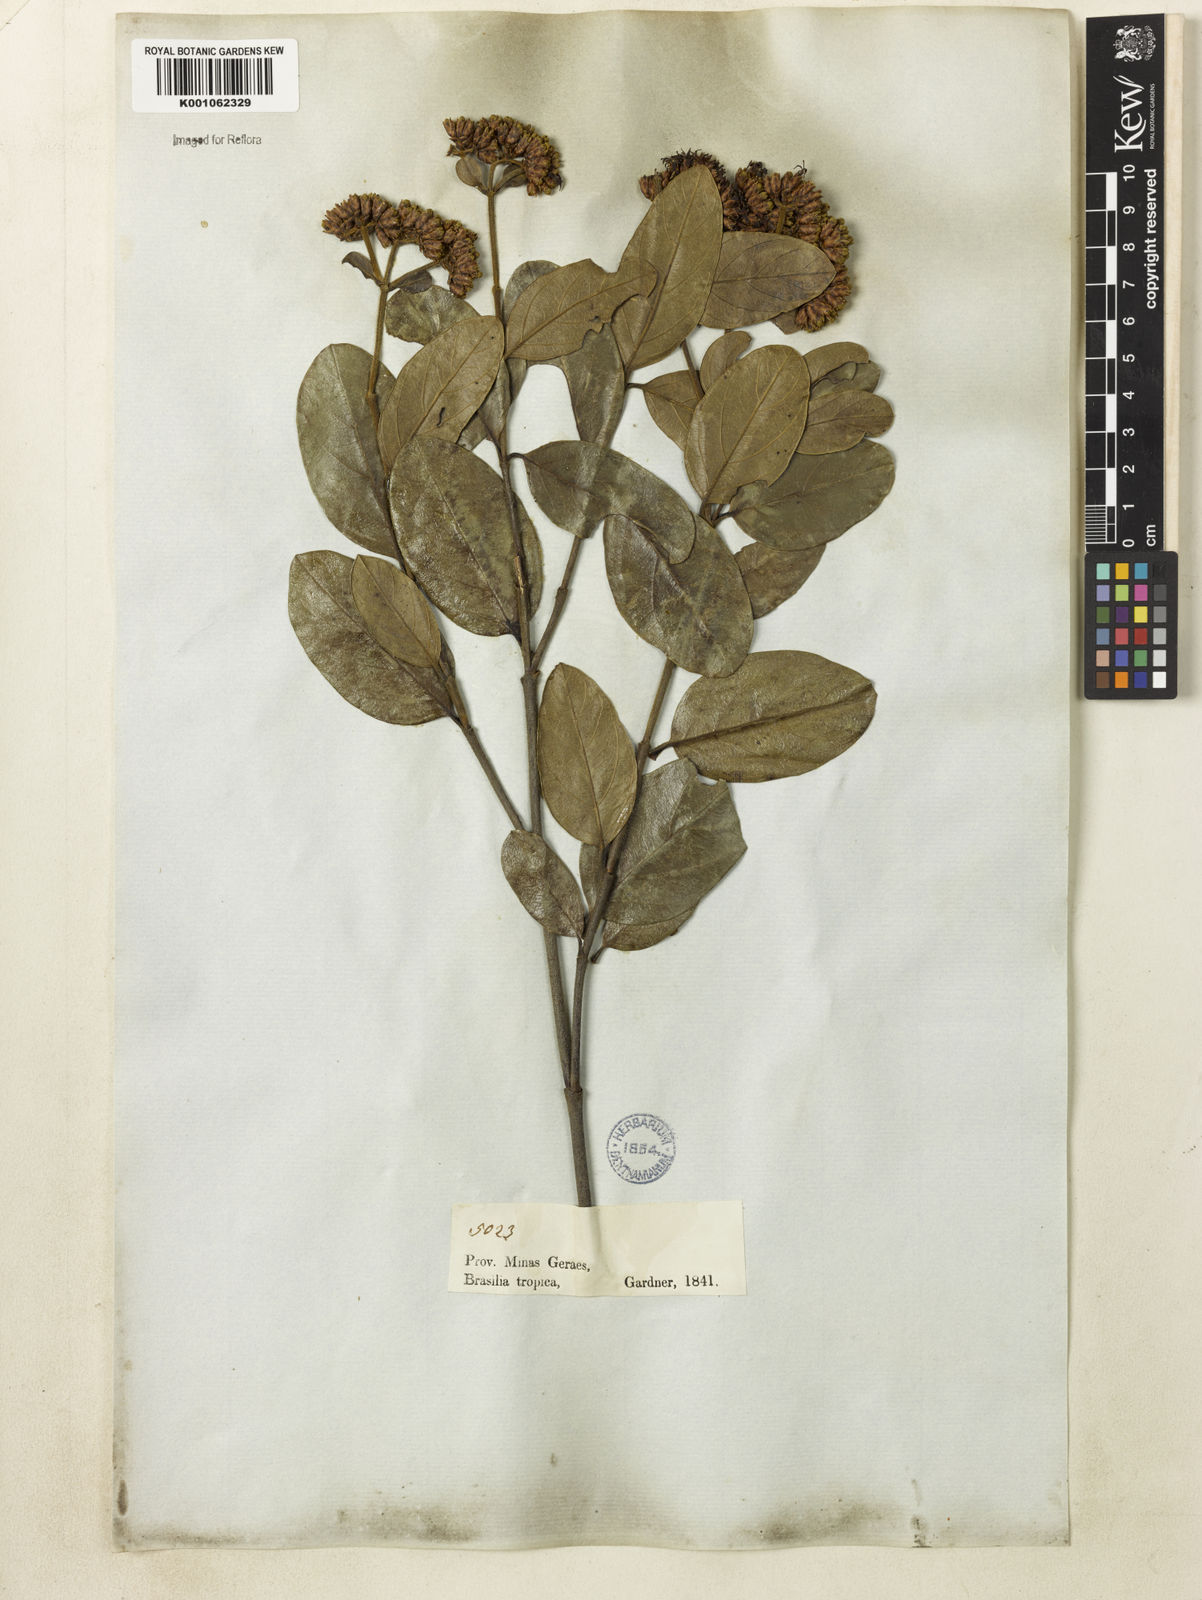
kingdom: Plantae
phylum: Tracheophyta
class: Magnoliopsida
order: Gentianales
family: Loganiaceae
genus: Antonia
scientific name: Antonia ovata
